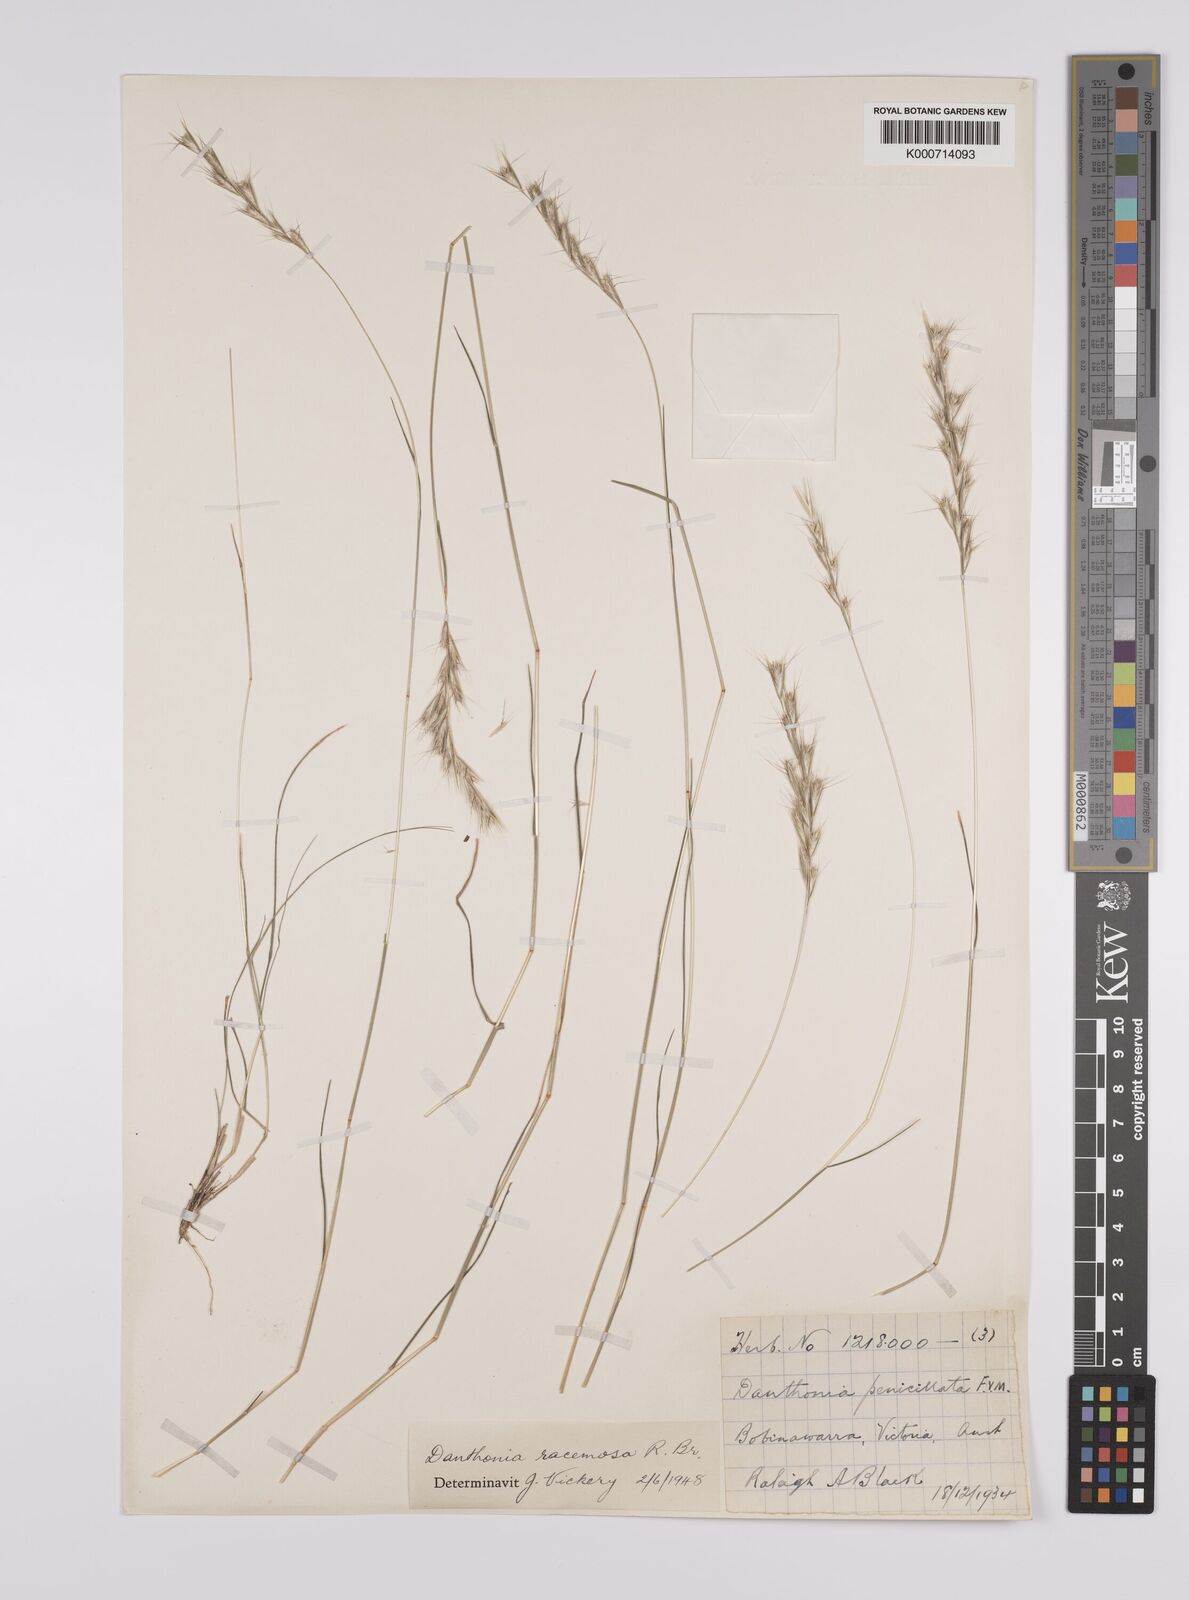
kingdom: Plantae
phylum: Tracheophyta
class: Liliopsida
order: Poales
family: Poaceae
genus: Rytidosperma
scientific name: Rytidosperma racemosum
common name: Wallaby-grass
